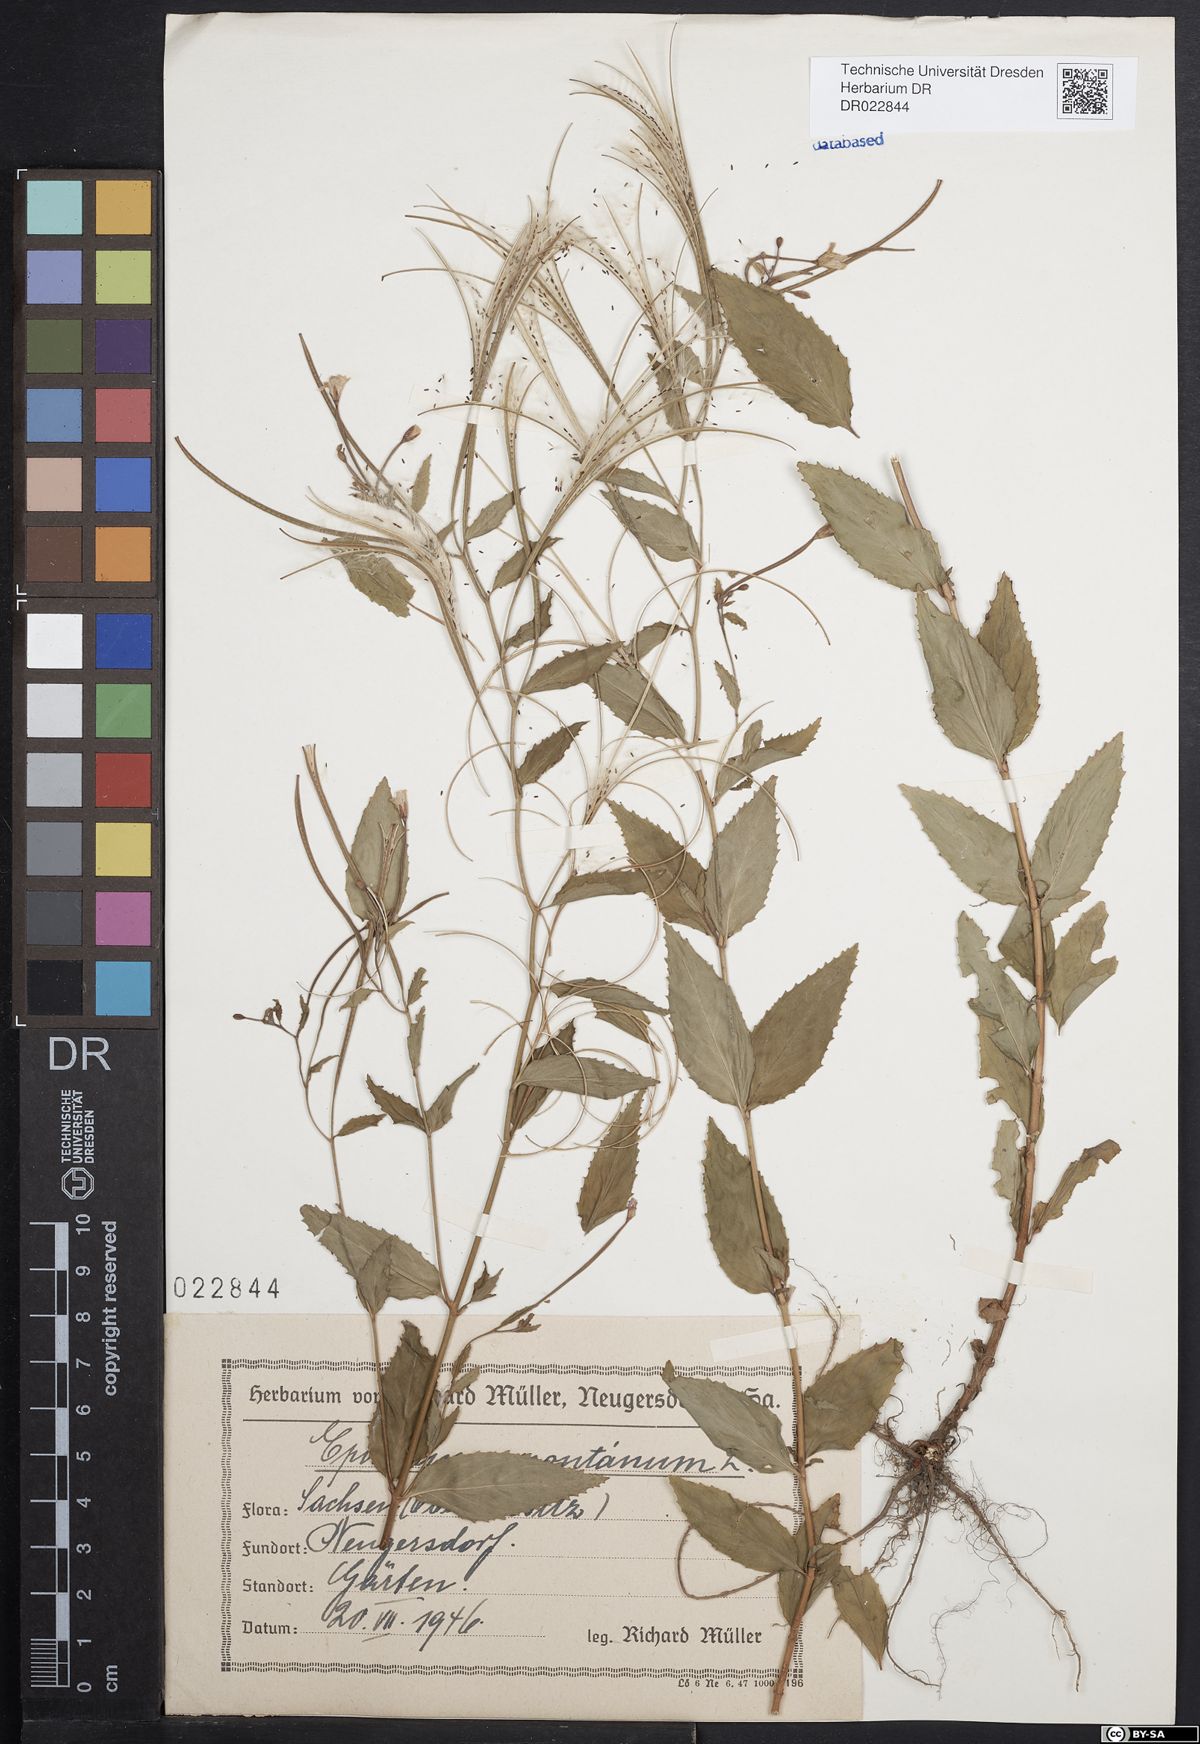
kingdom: Plantae
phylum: Tracheophyta
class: Magnoliopsida
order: Myrtales
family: Onagraceae
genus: Epilobium
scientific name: Epilobium montanum
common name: Broad-leaved willowherb
